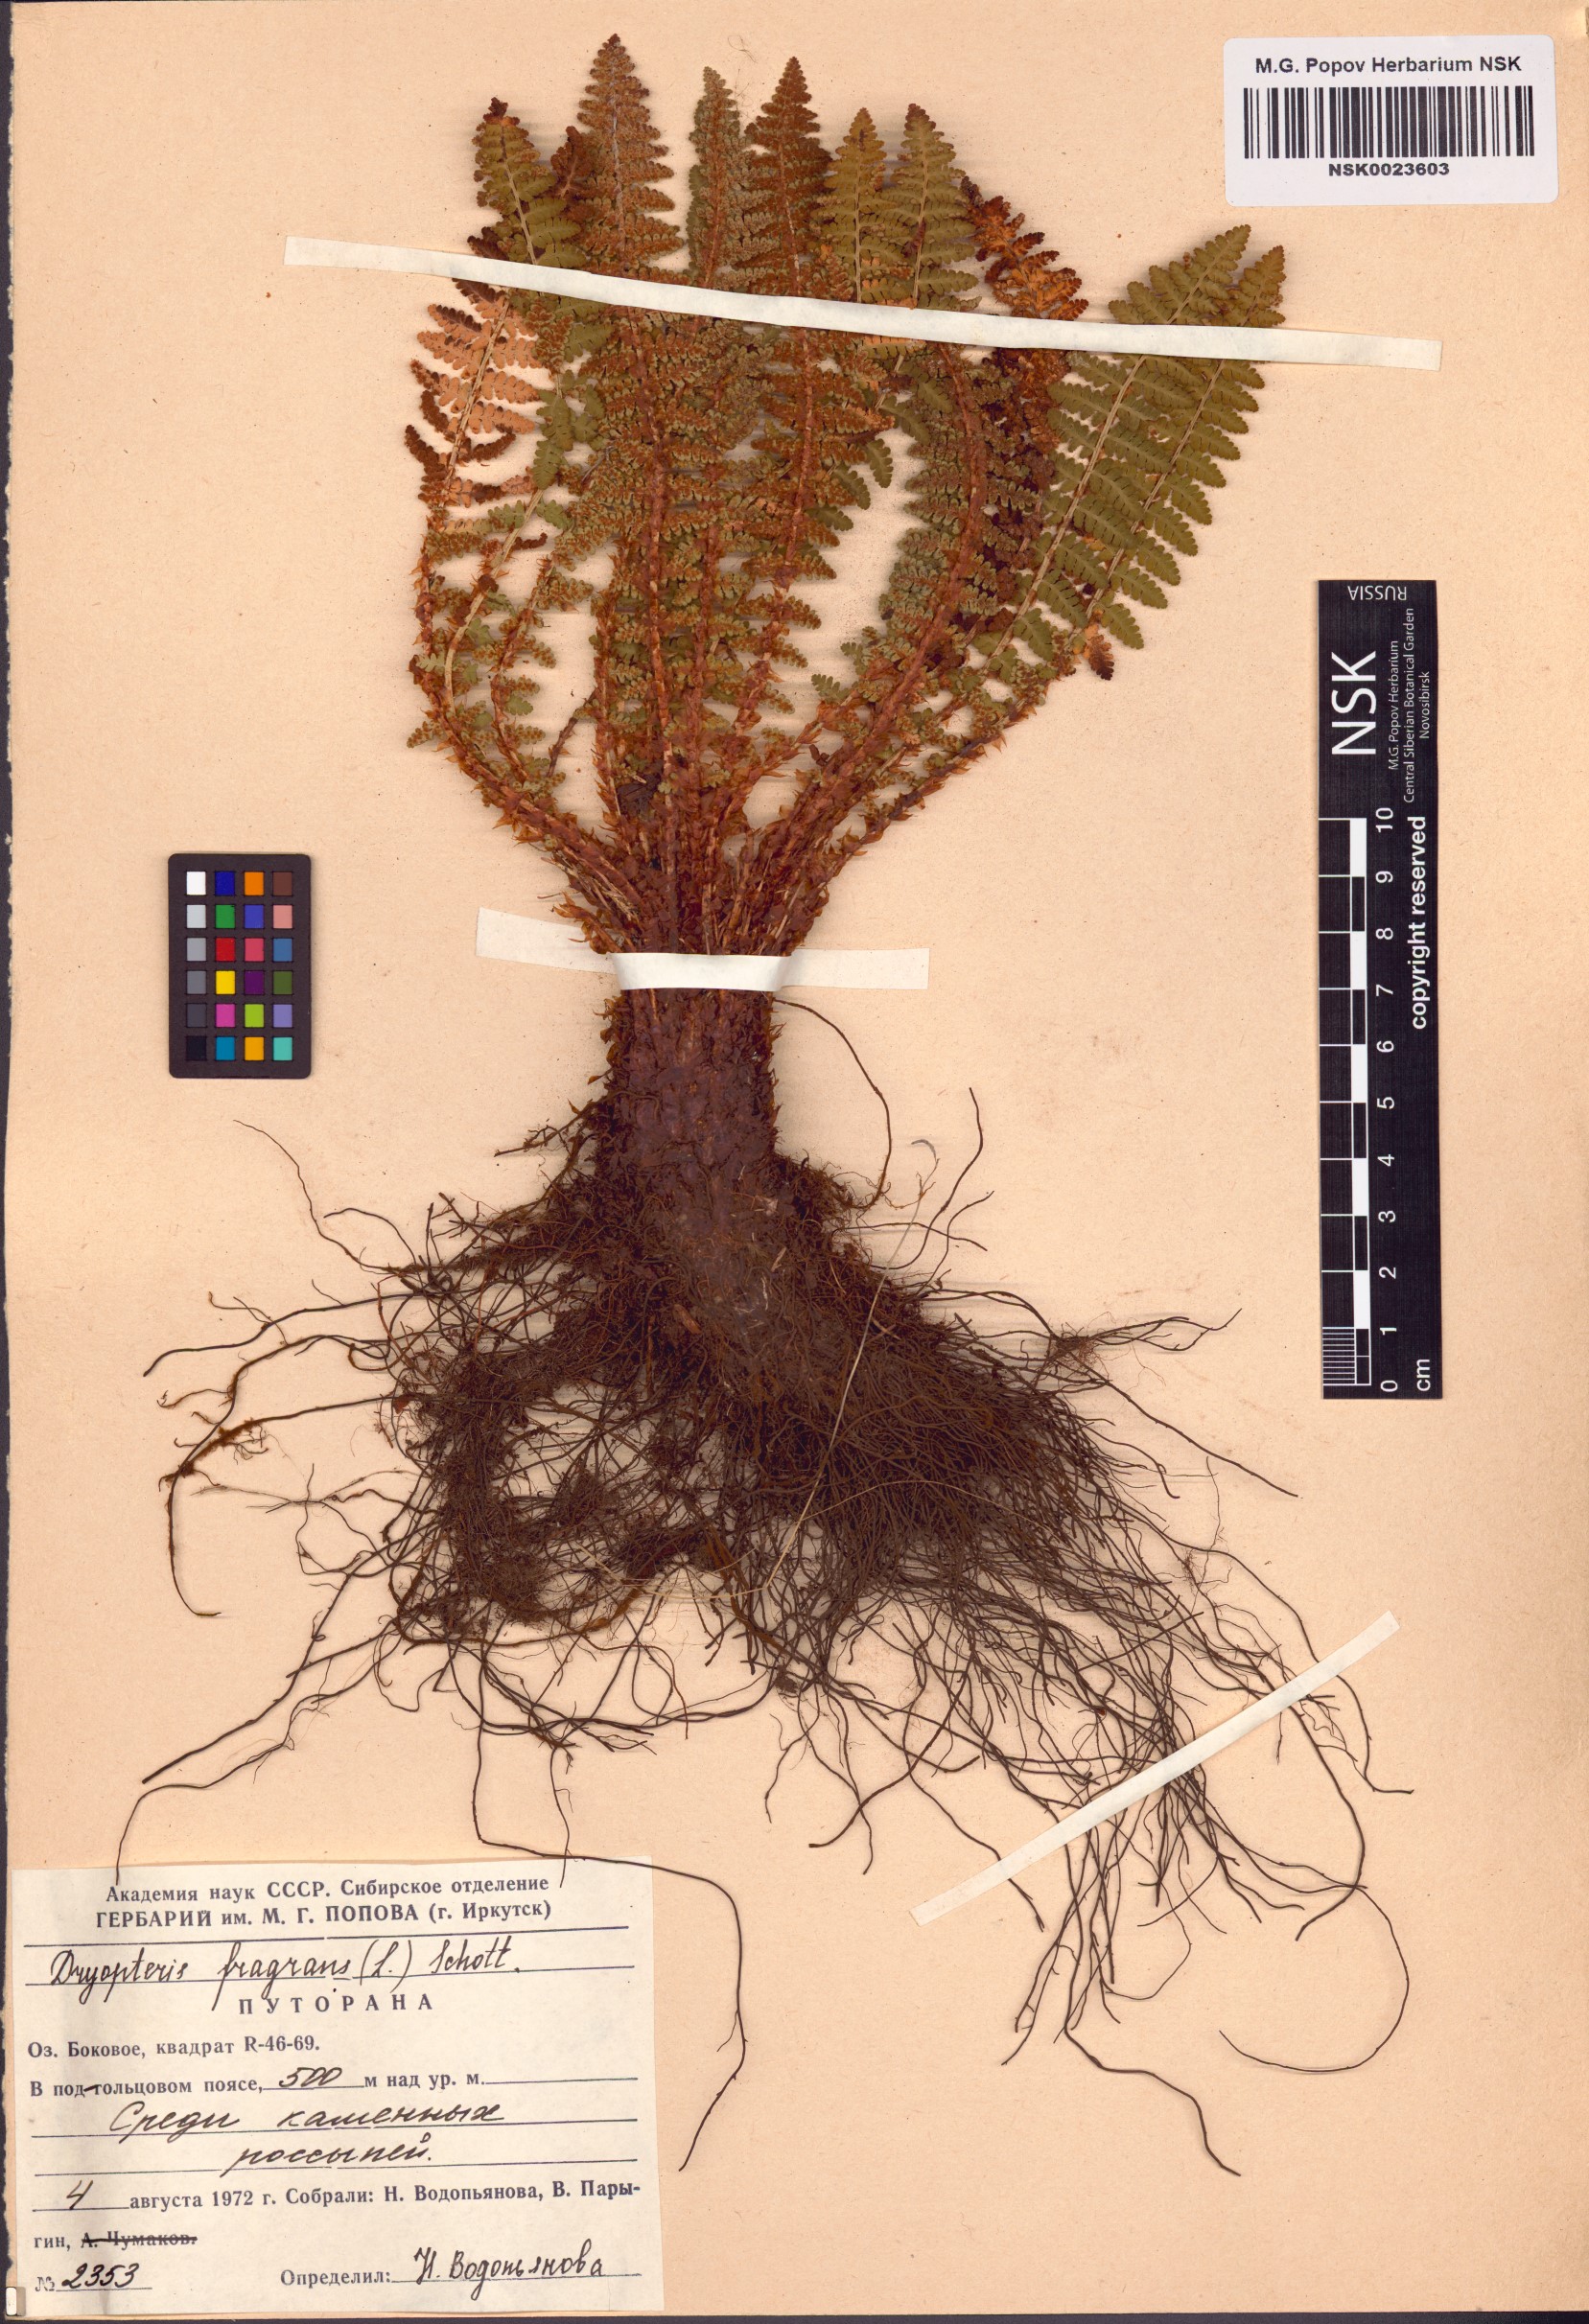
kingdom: Plantae
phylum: Tracheophyta
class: Polypodiopsida
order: Polypodiales
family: Dryopteridaceae
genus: Dryopteris
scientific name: Dryopteris fragrans
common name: Fragrant wood fern
